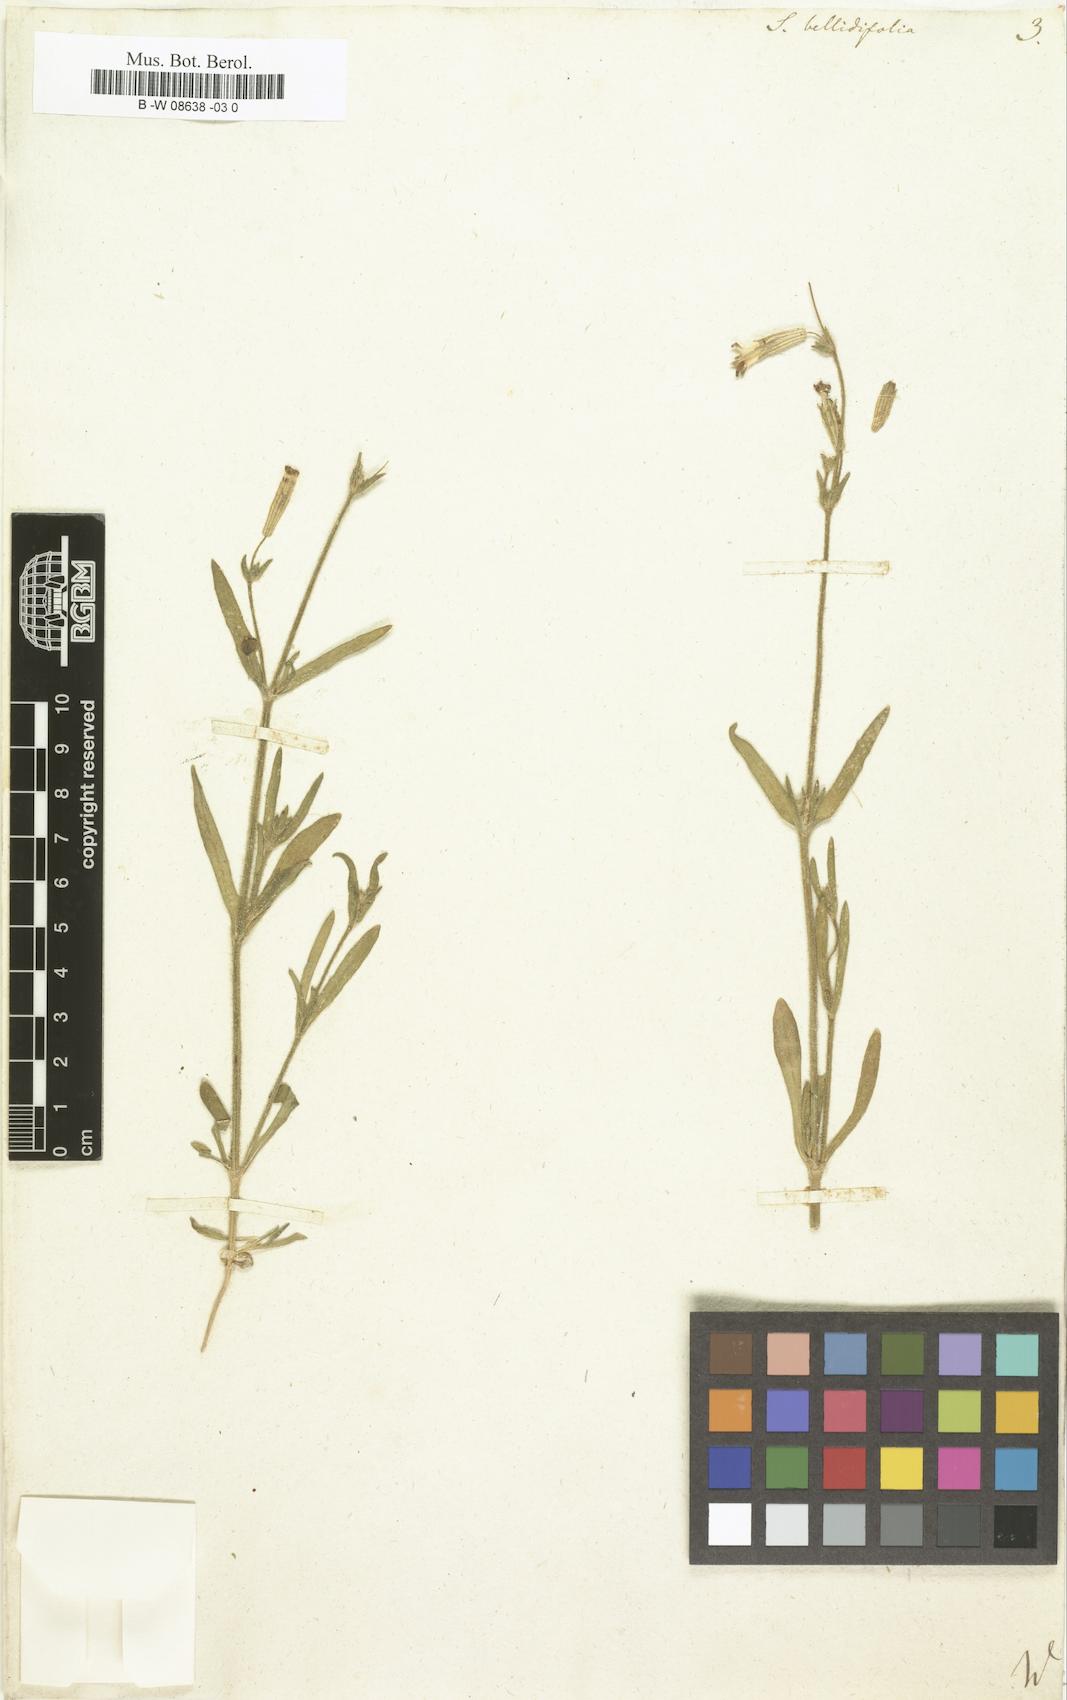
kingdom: Plantae
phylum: Tracheophyta
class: Magnoliopsida
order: Caryophyllales
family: Caryophyllaceae
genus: Silene
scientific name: Silene bellidifolia
